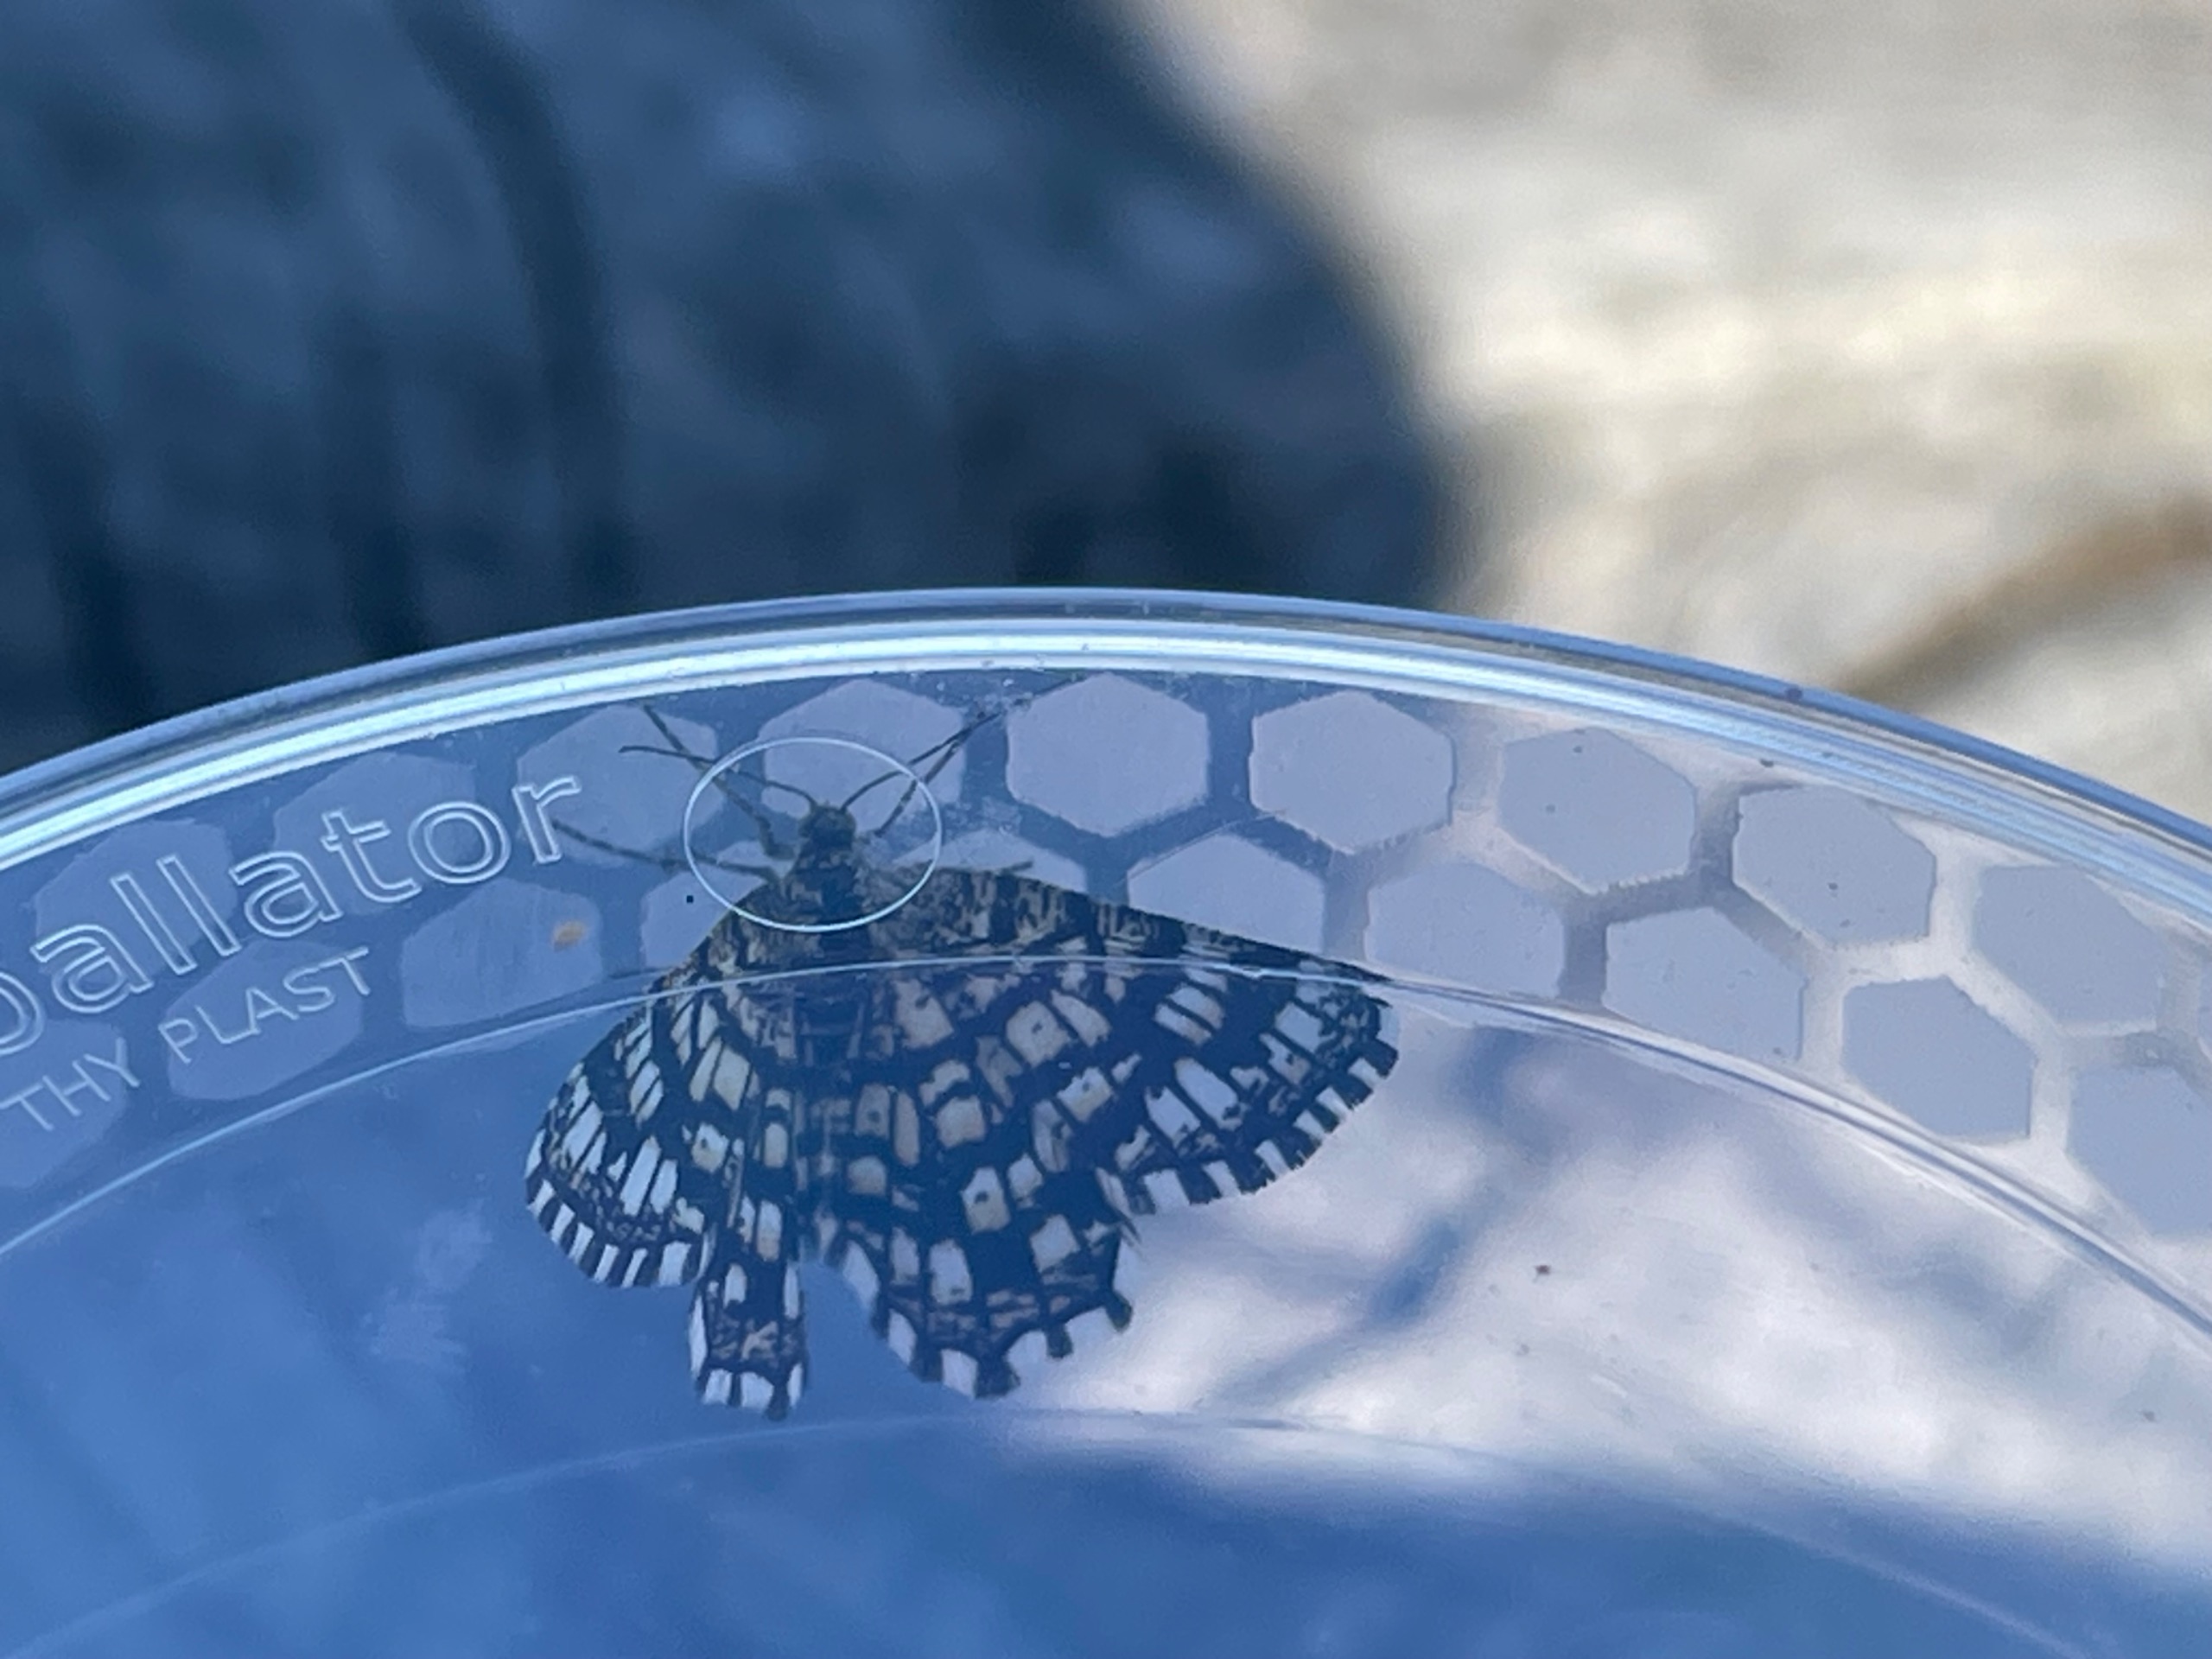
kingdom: Animalia
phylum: Arthropoda
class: Insecta
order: Lepidoptera
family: Geometridae
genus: Chiasmia
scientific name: Chiasmia clathrata
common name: Kløvermåler
